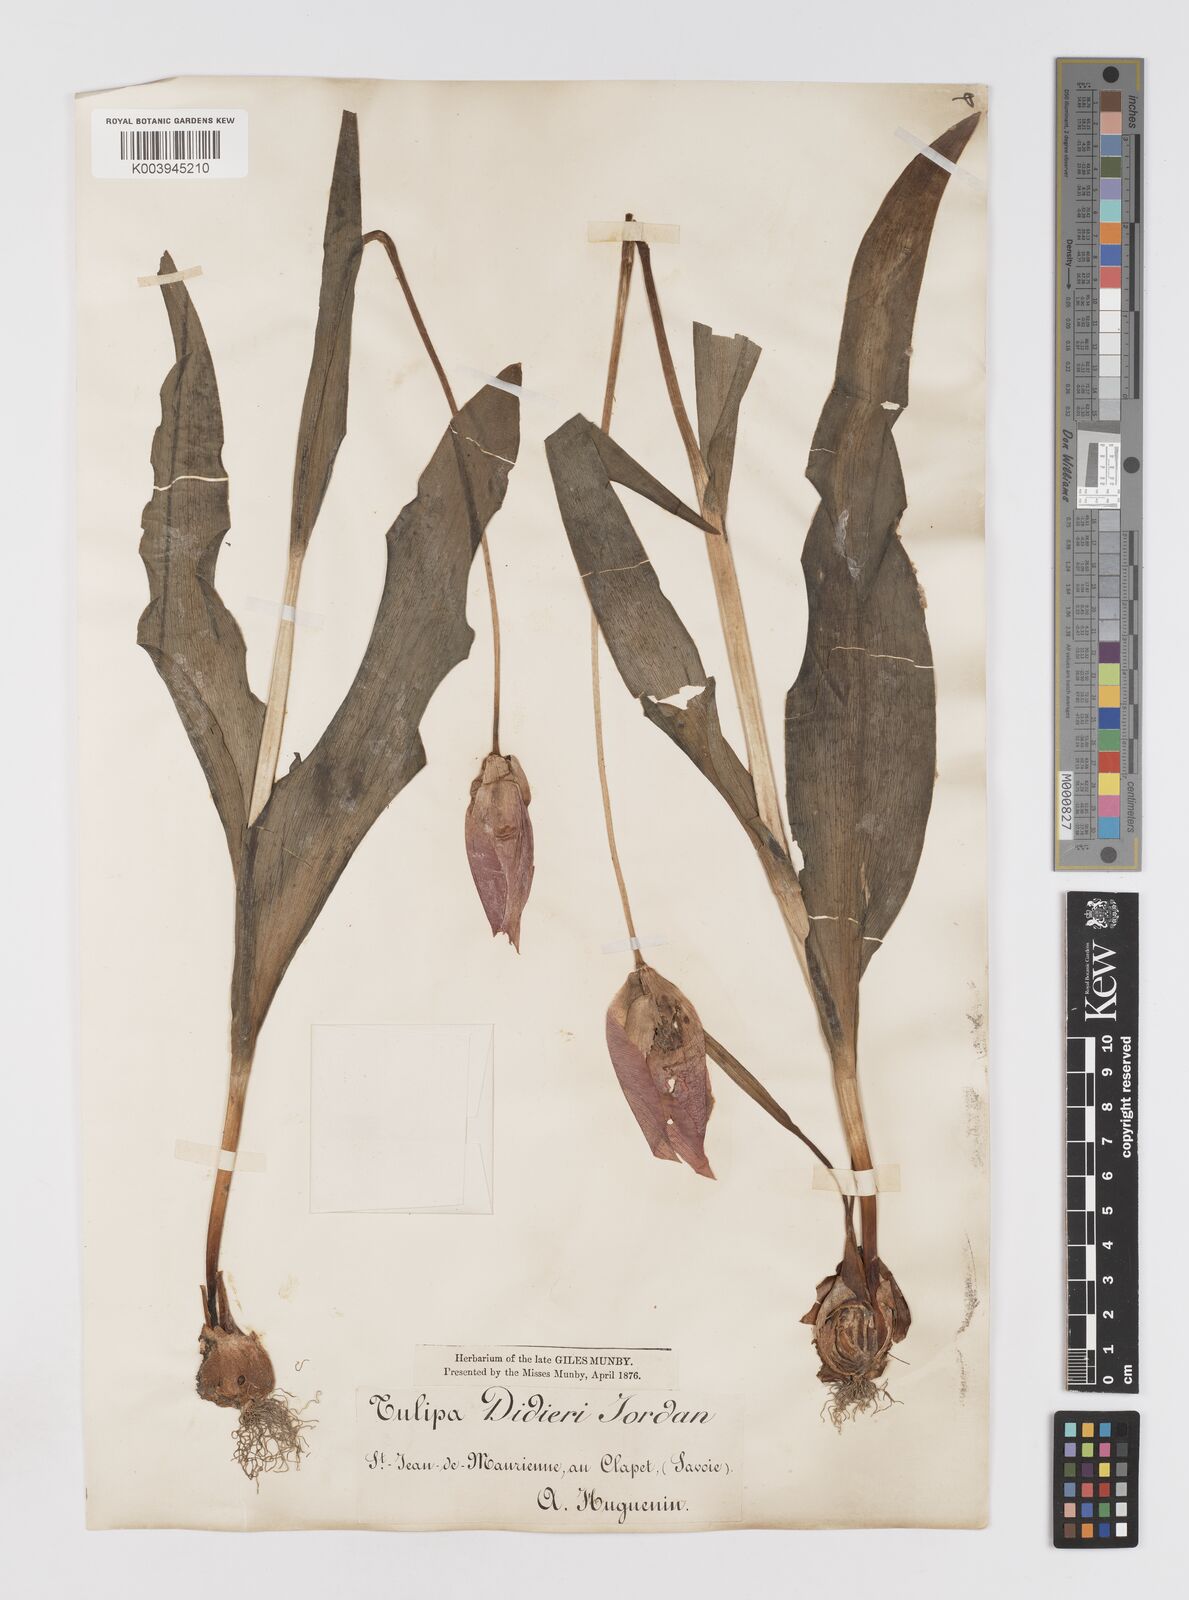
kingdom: Plantae
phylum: Tracheophyta
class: Liliopsida
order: Liliales
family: Liliaceae
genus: Tulipa
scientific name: Tulipa gesneriana
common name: Garden tulip
